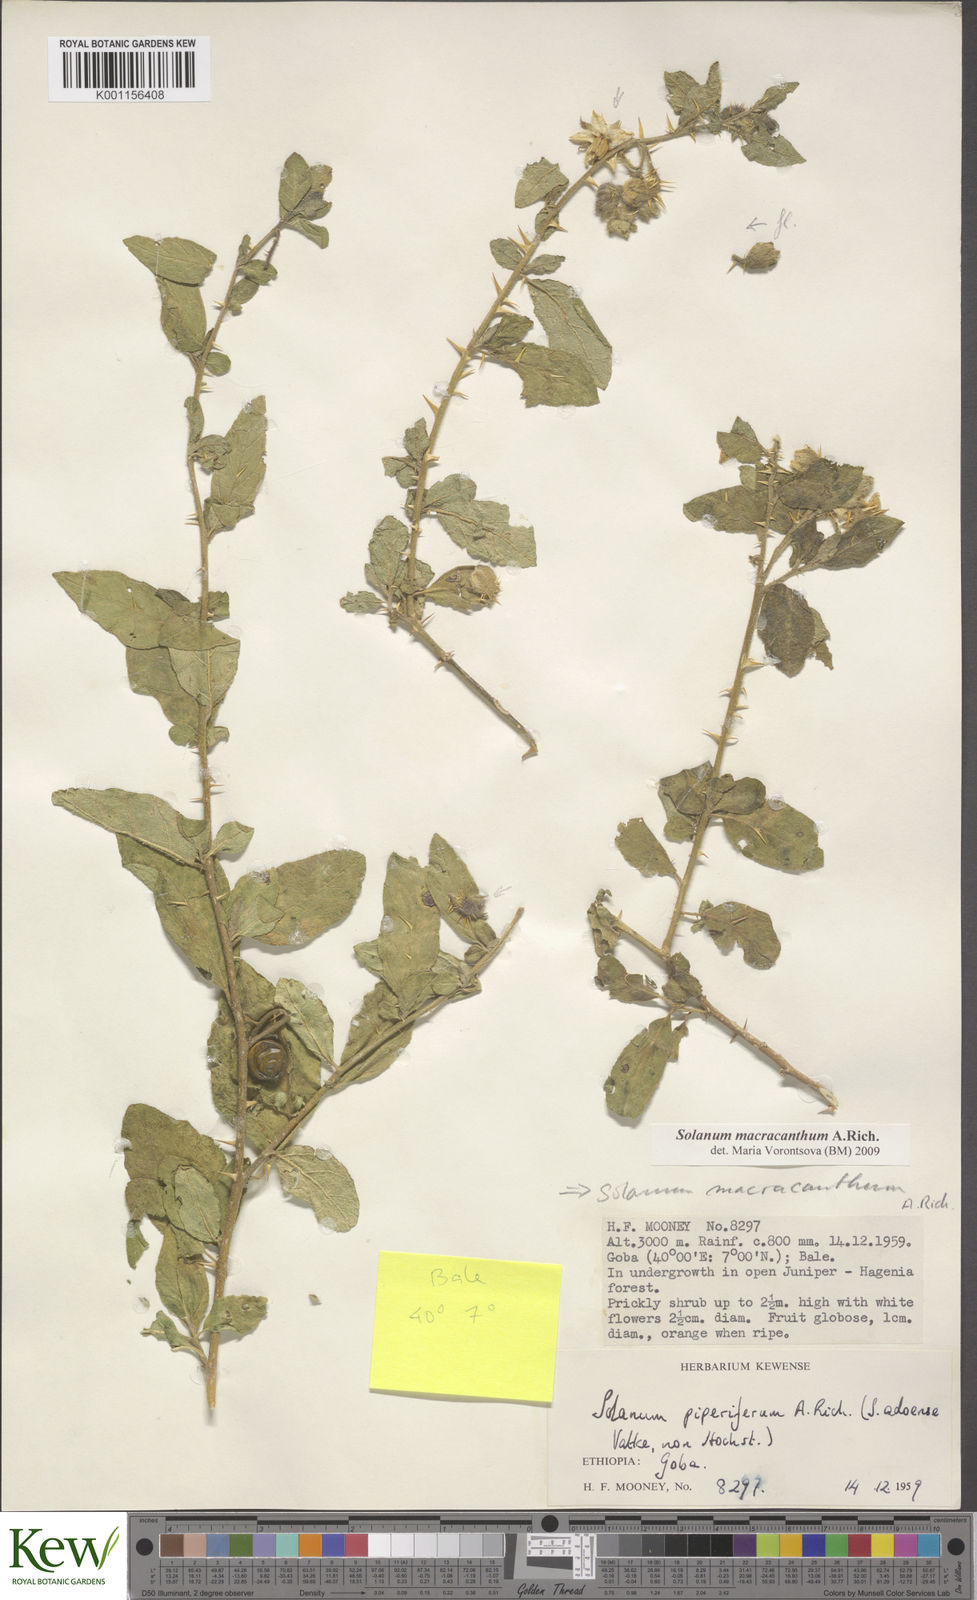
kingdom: Plantae
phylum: Tracheophyta
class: Magnoliopsida
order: Solanales
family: Solanaceae
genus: Solanum
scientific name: Solanum macracanthum
